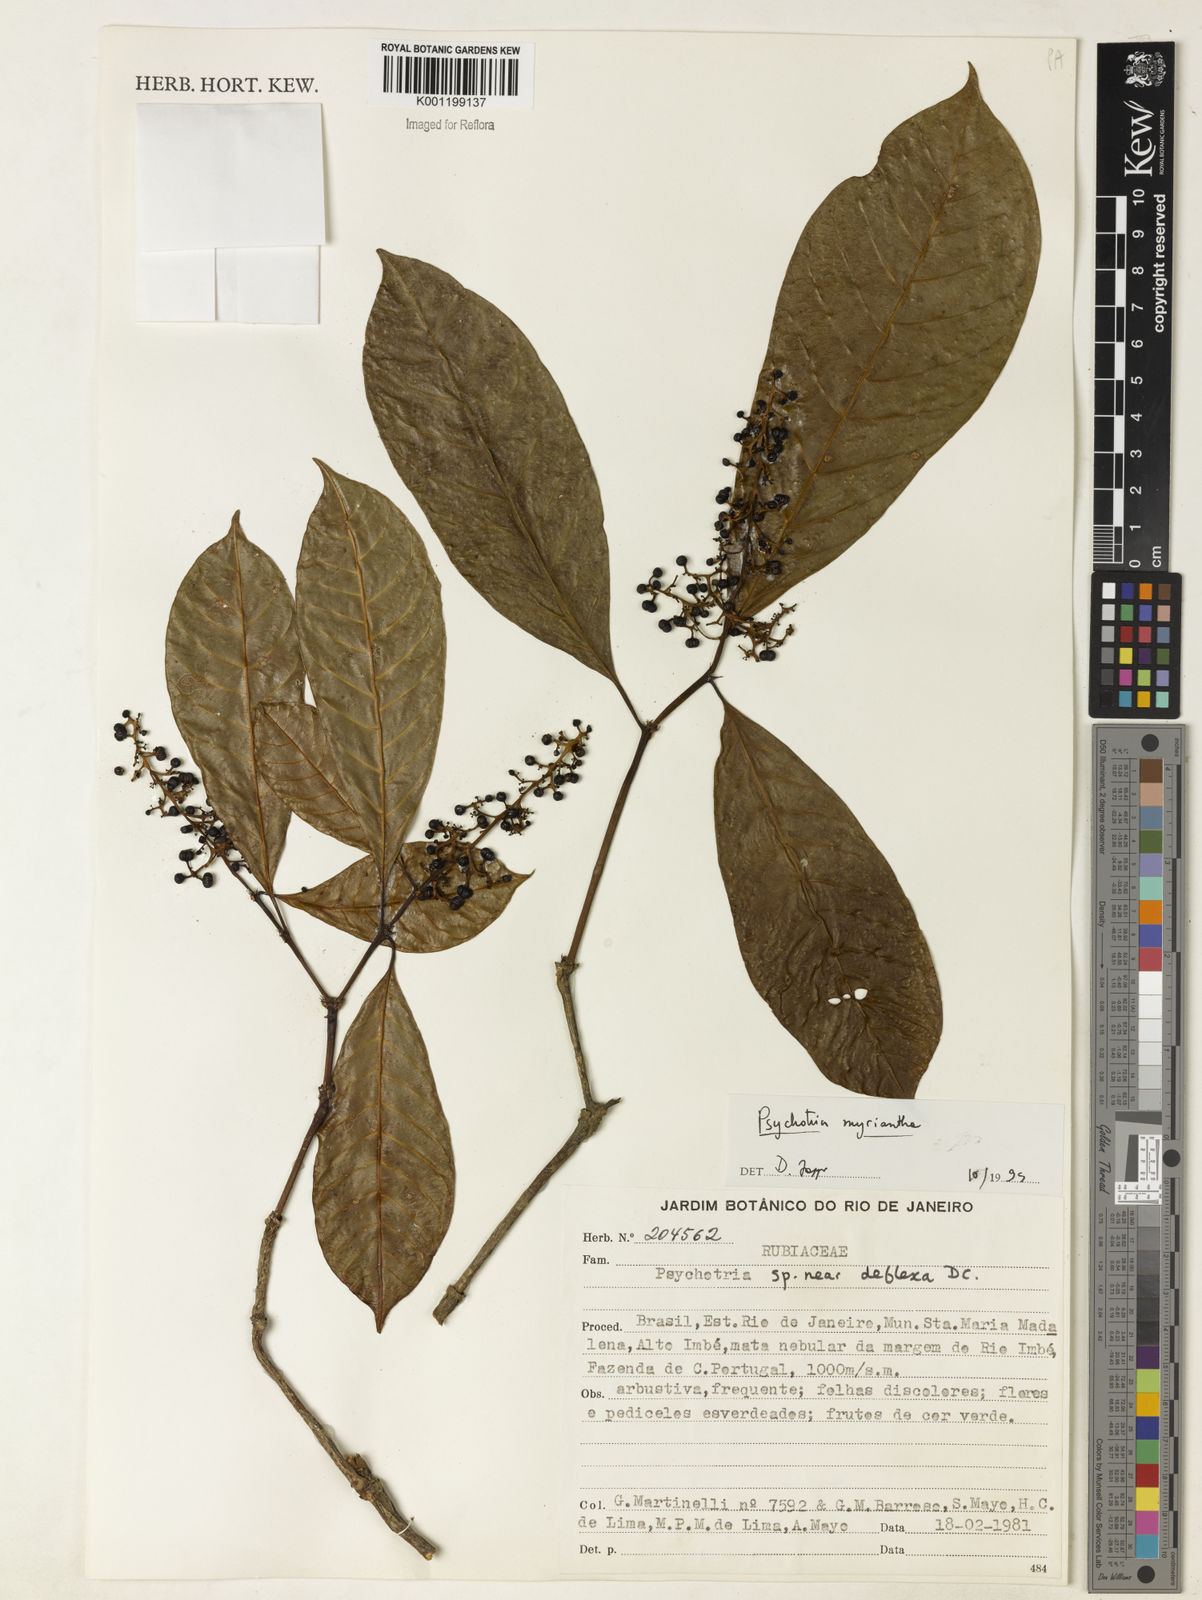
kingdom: Plantae
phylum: Tracheophyta
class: Magnoliopsida
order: Gentianales
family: Rubiaceae
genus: Psychotria
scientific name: Psychotria
